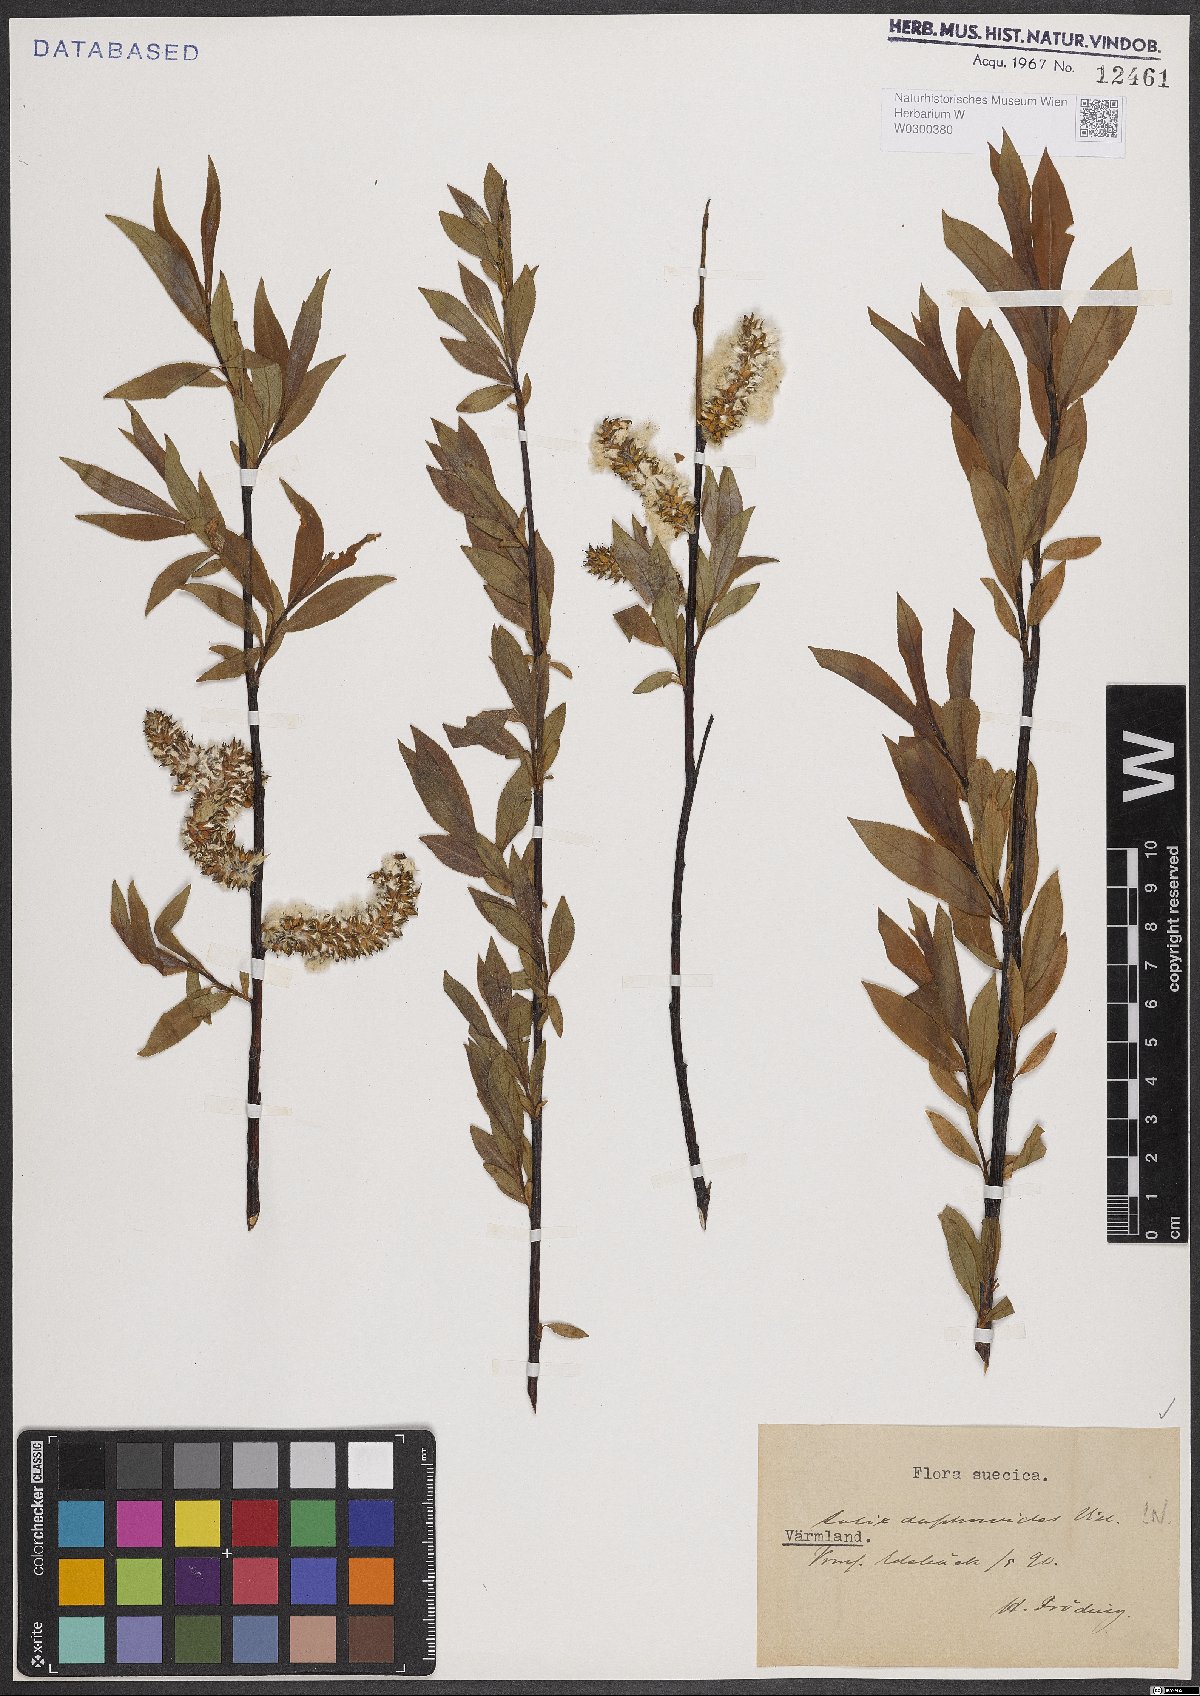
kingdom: Plantae
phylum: Tracheophyta
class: Magnoliopsida
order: Malpighiales
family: Salicaceae
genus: Salix
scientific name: Salix daphnoides
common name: European violet-willow
